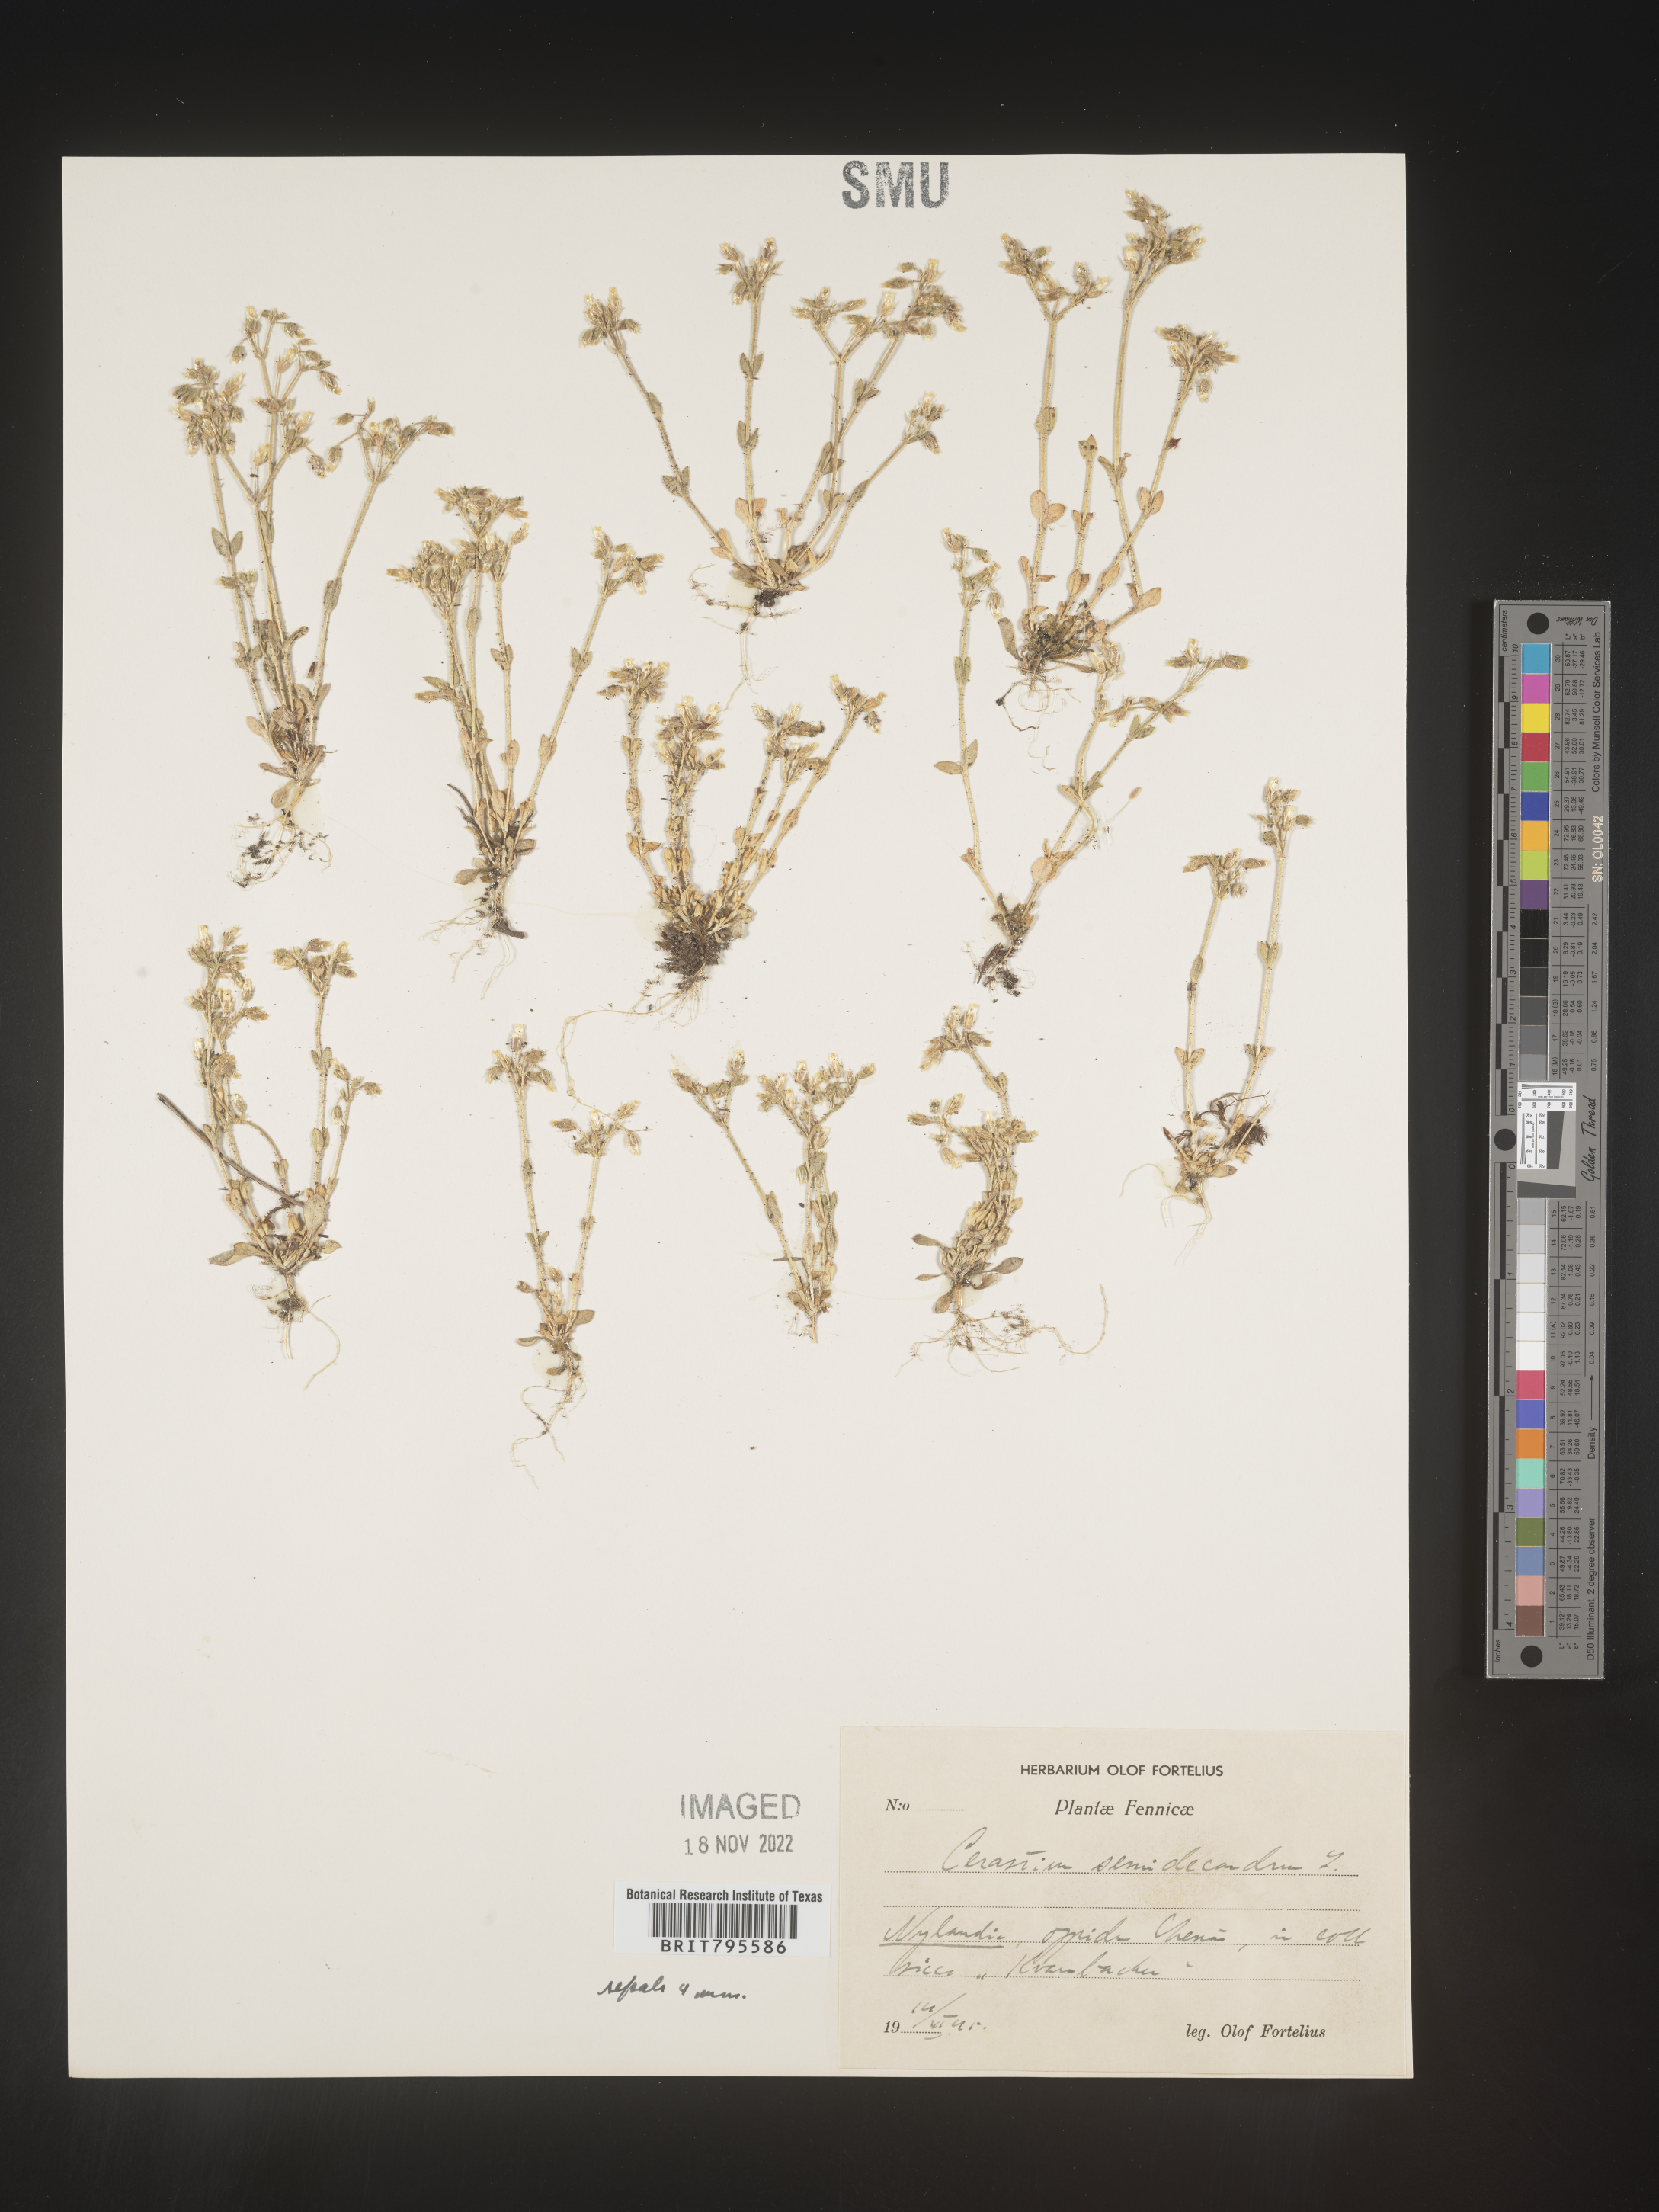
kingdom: Plantae
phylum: Tracheophyta
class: Magnoliopsida
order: Caryophyllales
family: Caryophyllaceae
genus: Cerastium
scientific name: Cerastium
